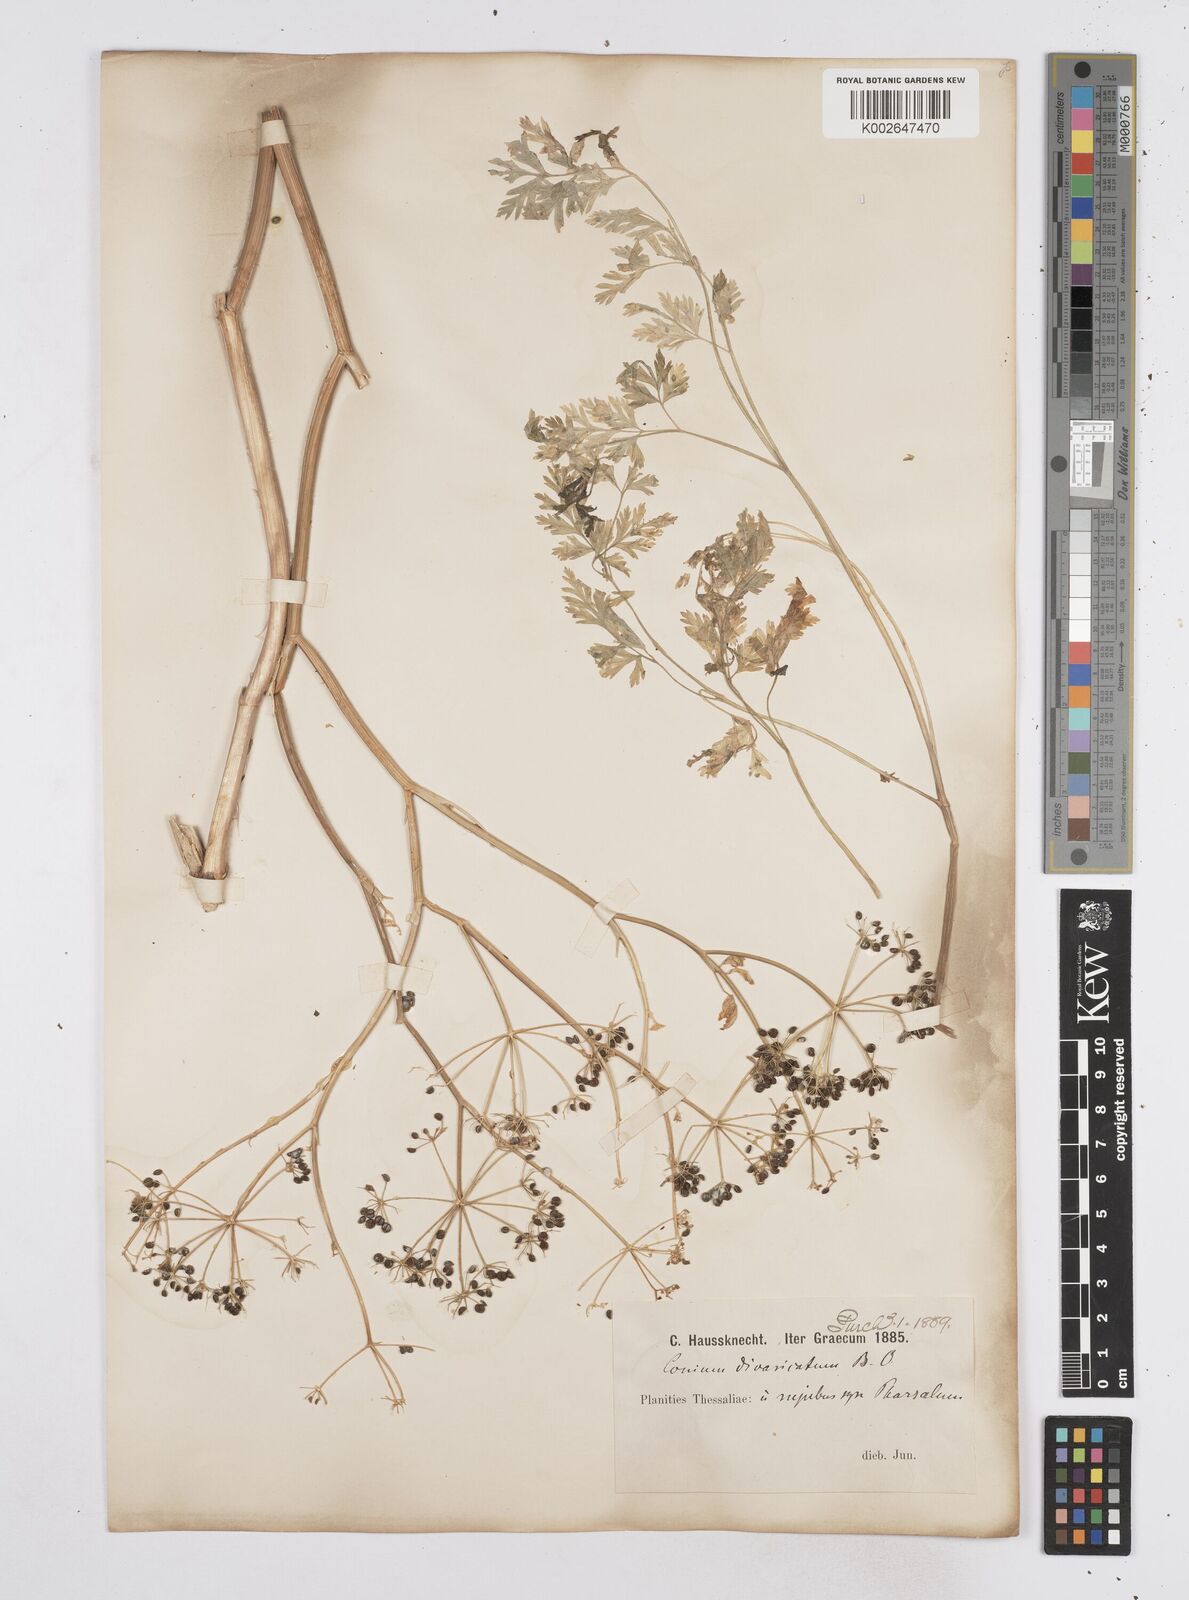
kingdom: Plantae
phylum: Tracheophyta
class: Magnoliopsida
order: Apiales
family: Apiaceae
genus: Conium
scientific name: Conium divaricatum
